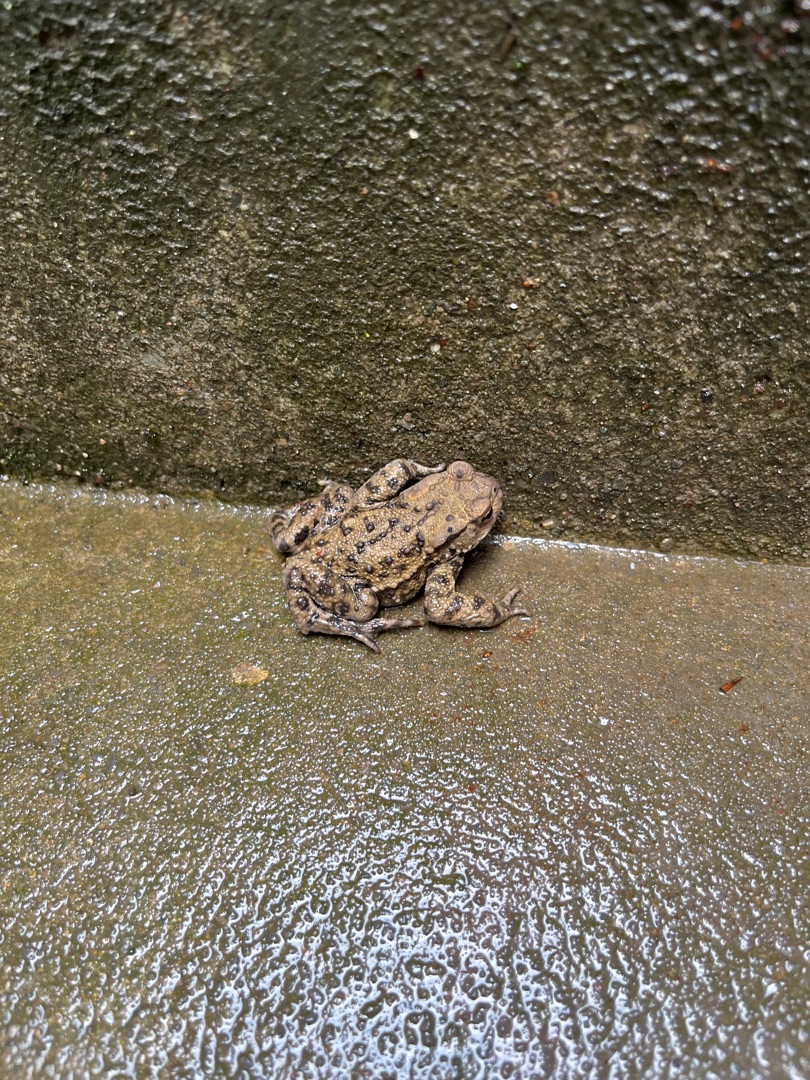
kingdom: Animalia
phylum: Chordata
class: Amphibia
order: Anura
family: Bufonidae
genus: Bufo
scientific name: Bufo bufo
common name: Skrubtudse
